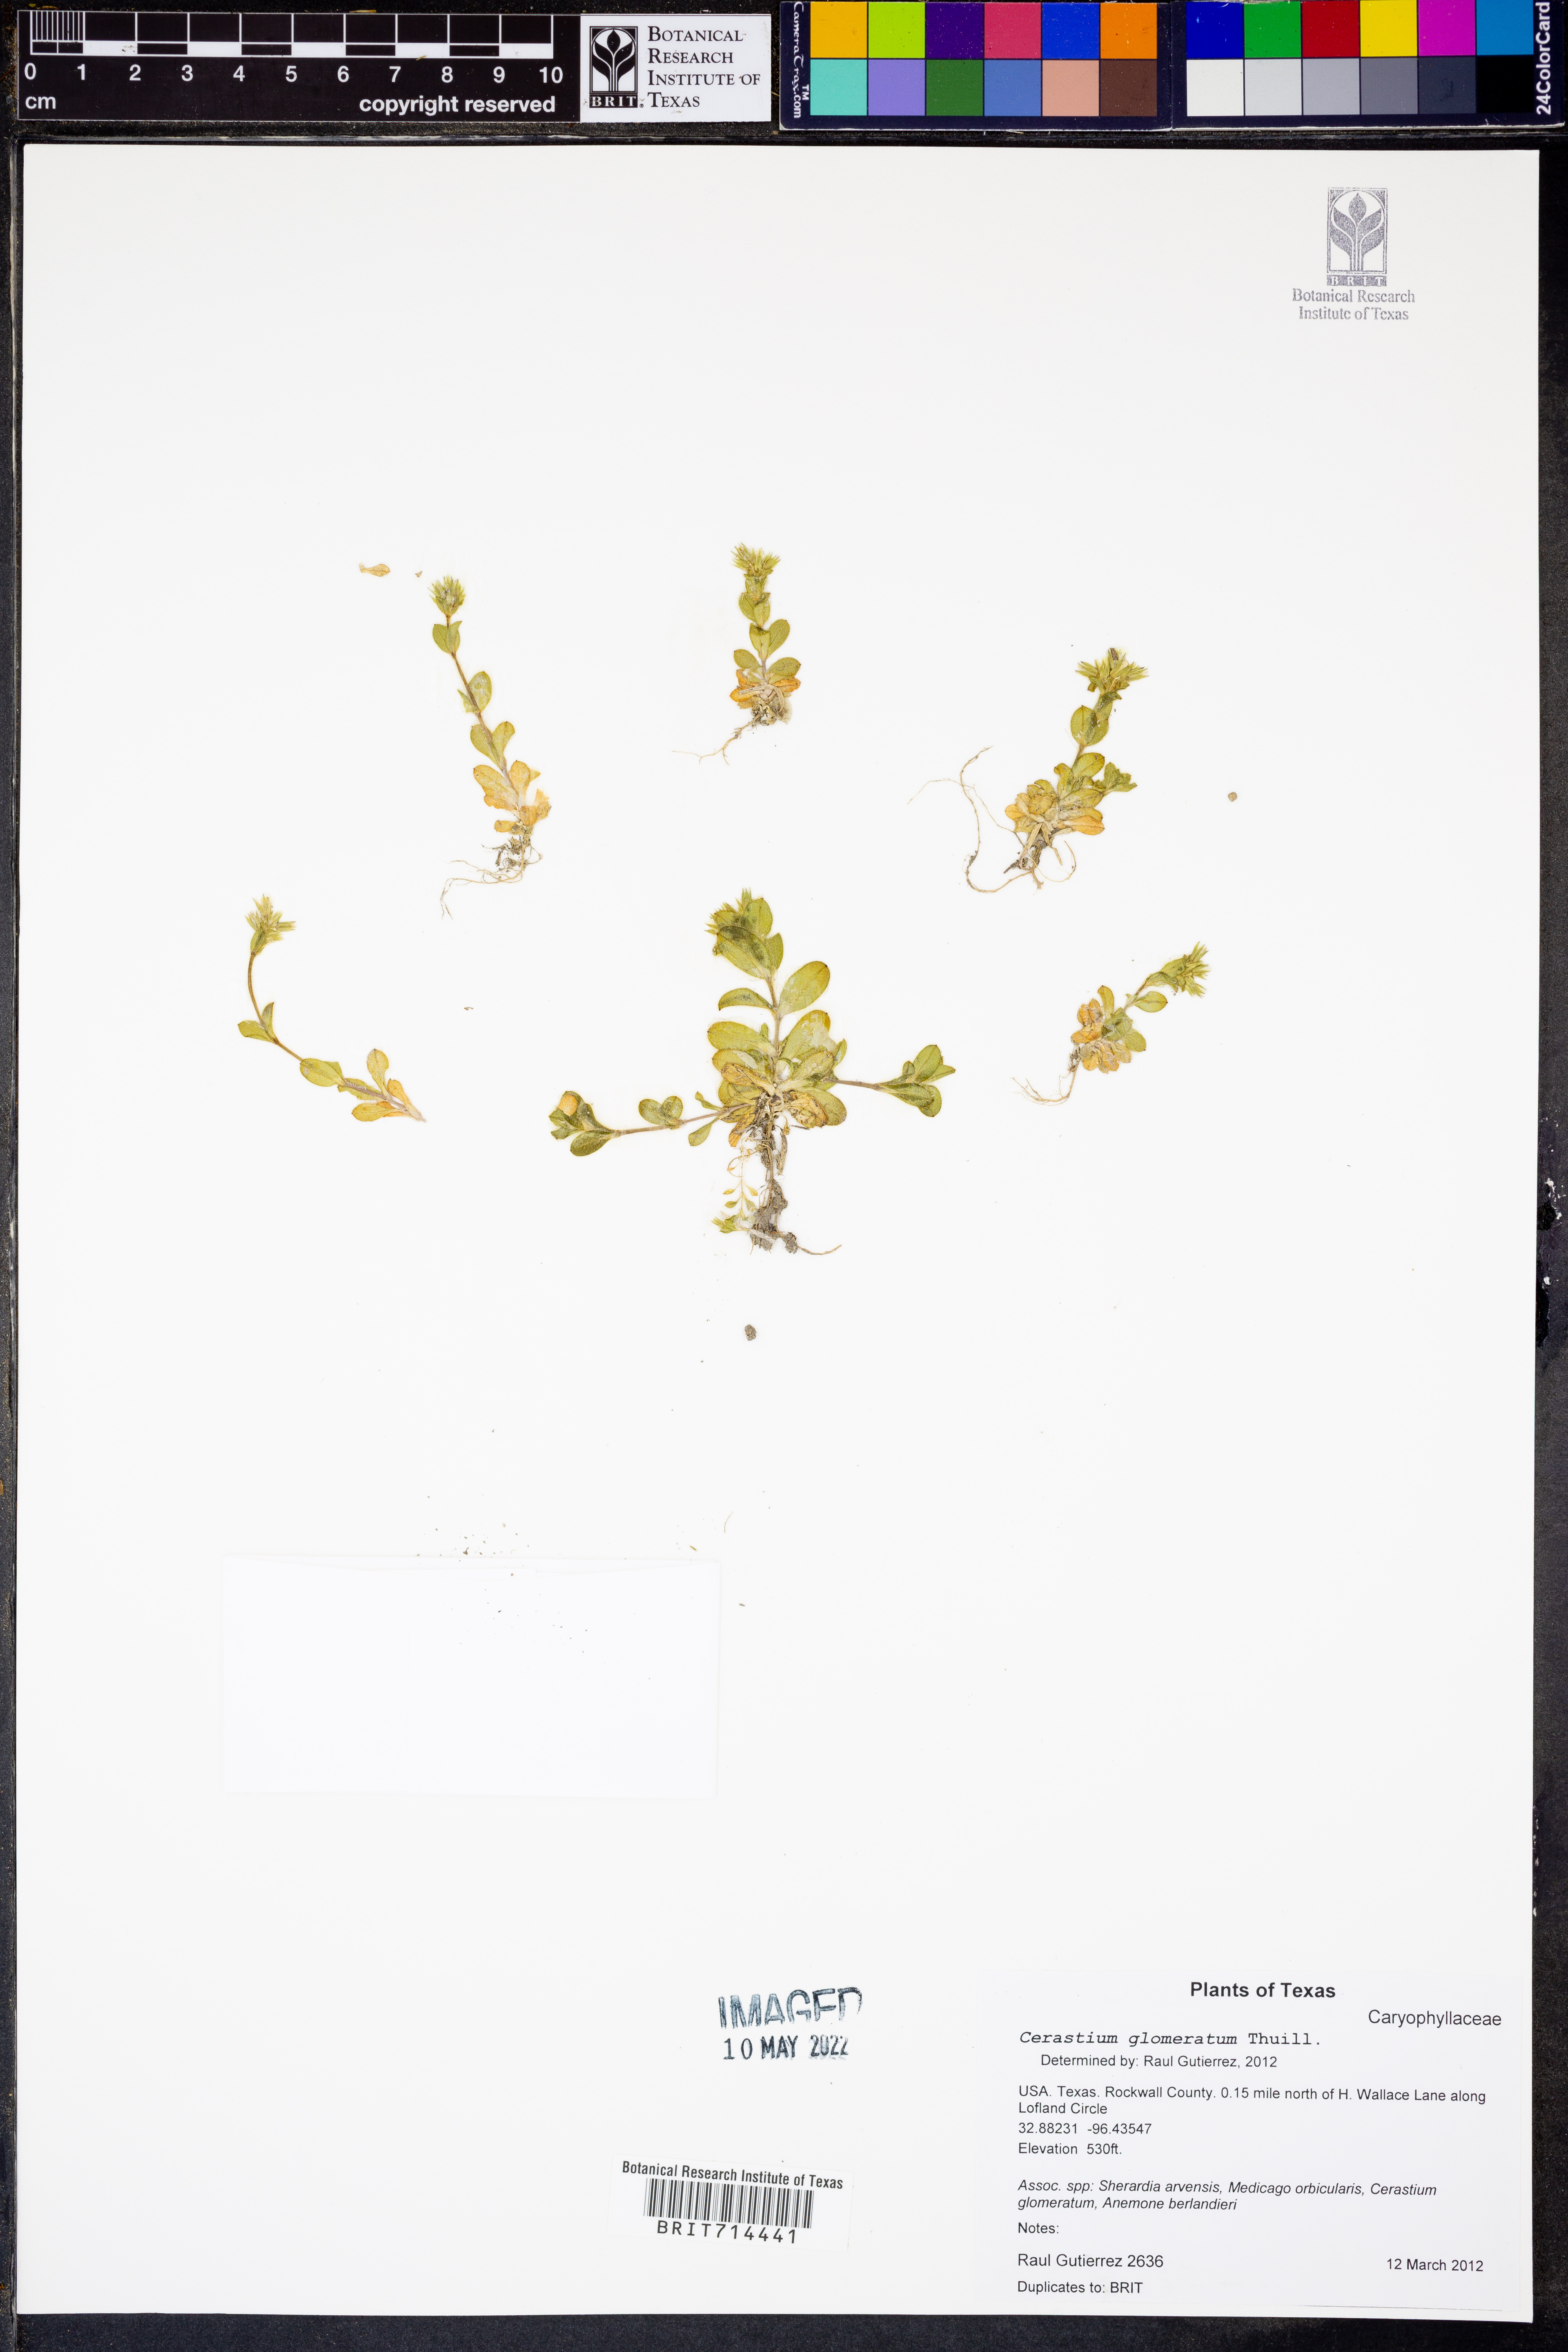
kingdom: Plantae
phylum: Tracheophyta
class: Magnoliopsida
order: Caryophyllales
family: Caryophyllaceae
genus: Cerastium
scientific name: Cerastium glomeratum
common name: Sticky chickweed
